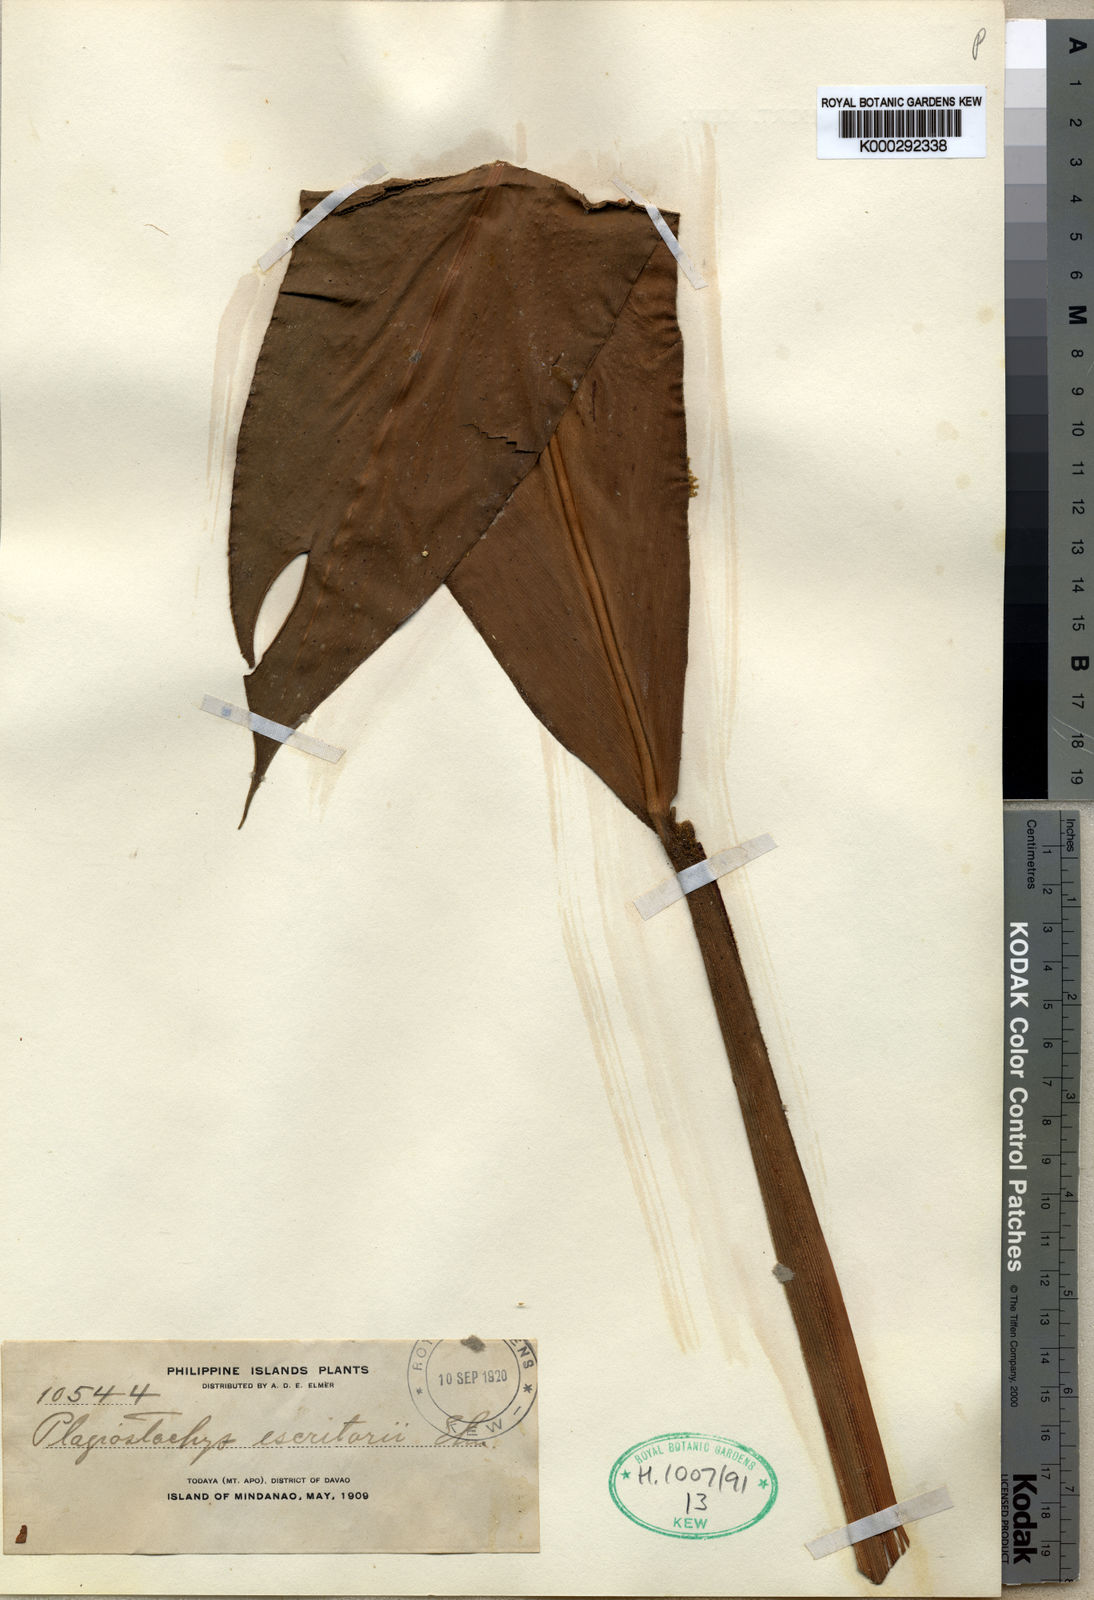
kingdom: Plantae
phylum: Tracheophyta
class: Liliopsida
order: Zingiberales
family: Zingiberaceae
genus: Plagiostachys
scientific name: Plagiostachys escritorii
